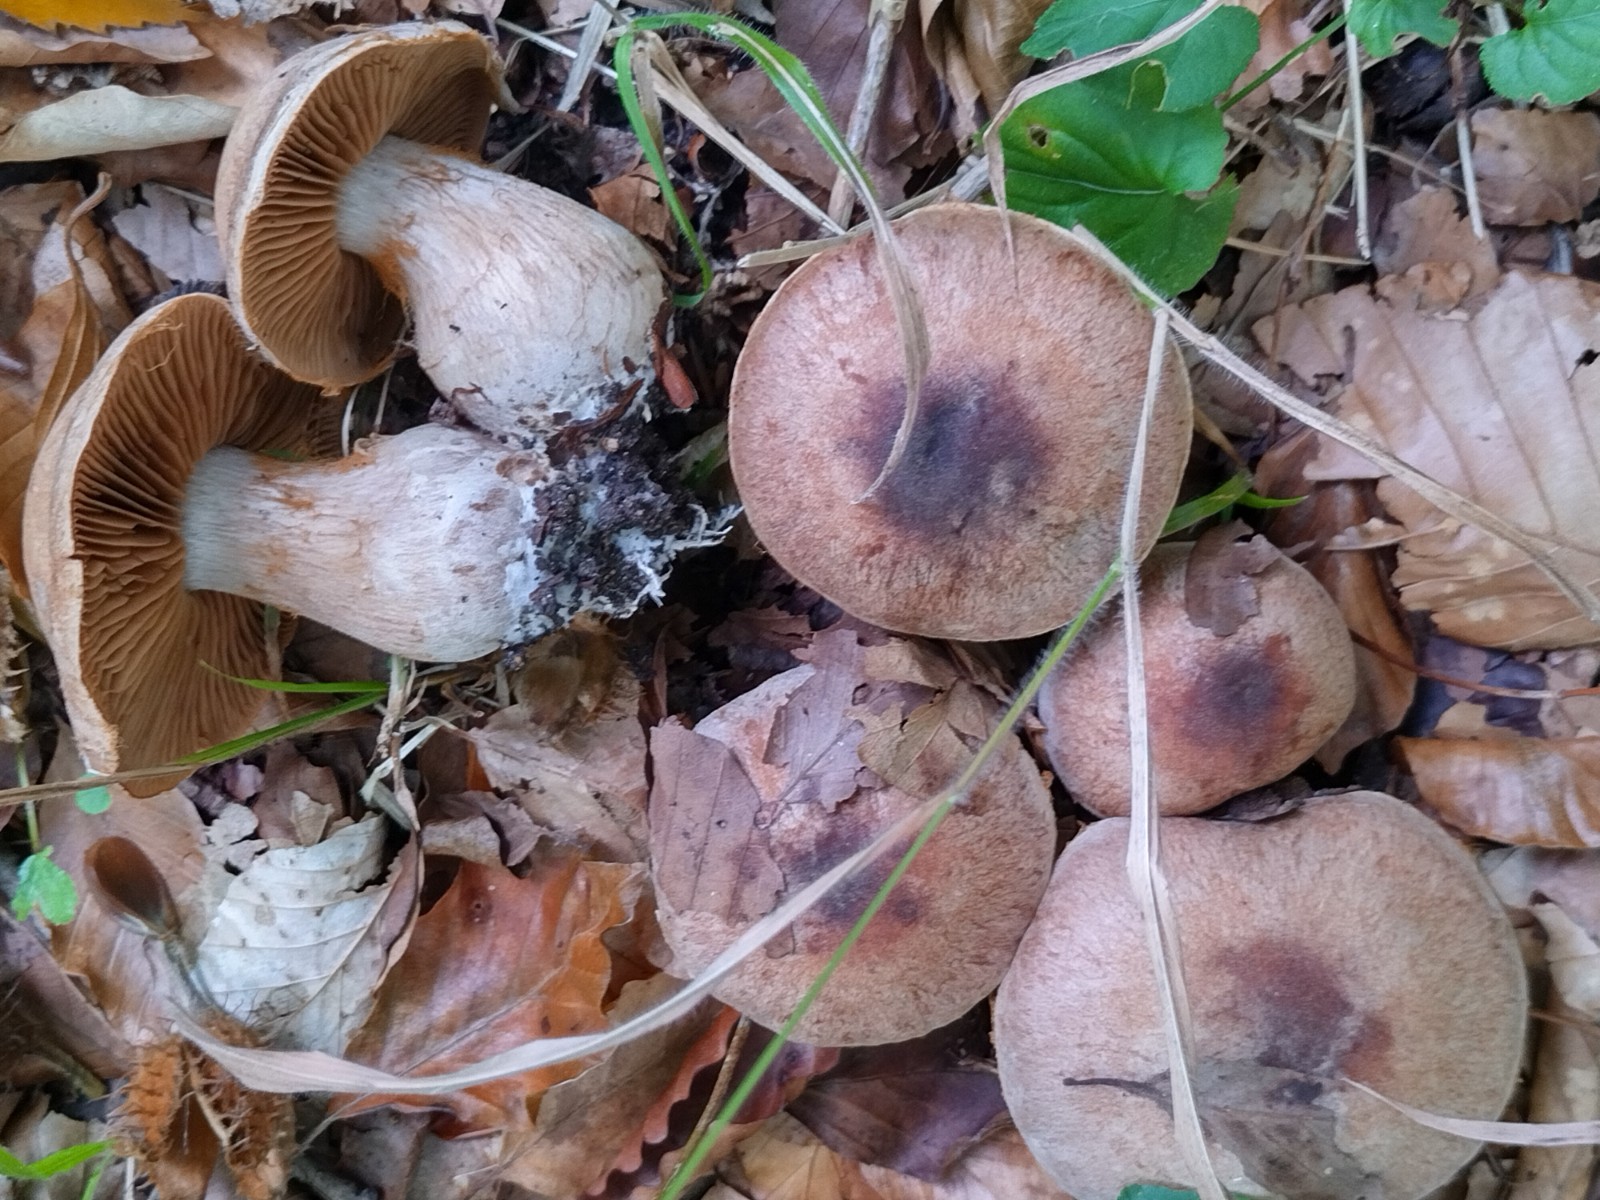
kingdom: Fungi
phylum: Basidiomycota
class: Agaricomycetes
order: Agaricales
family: Cortinariaceae
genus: Cortinarius
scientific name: Cortinarius
